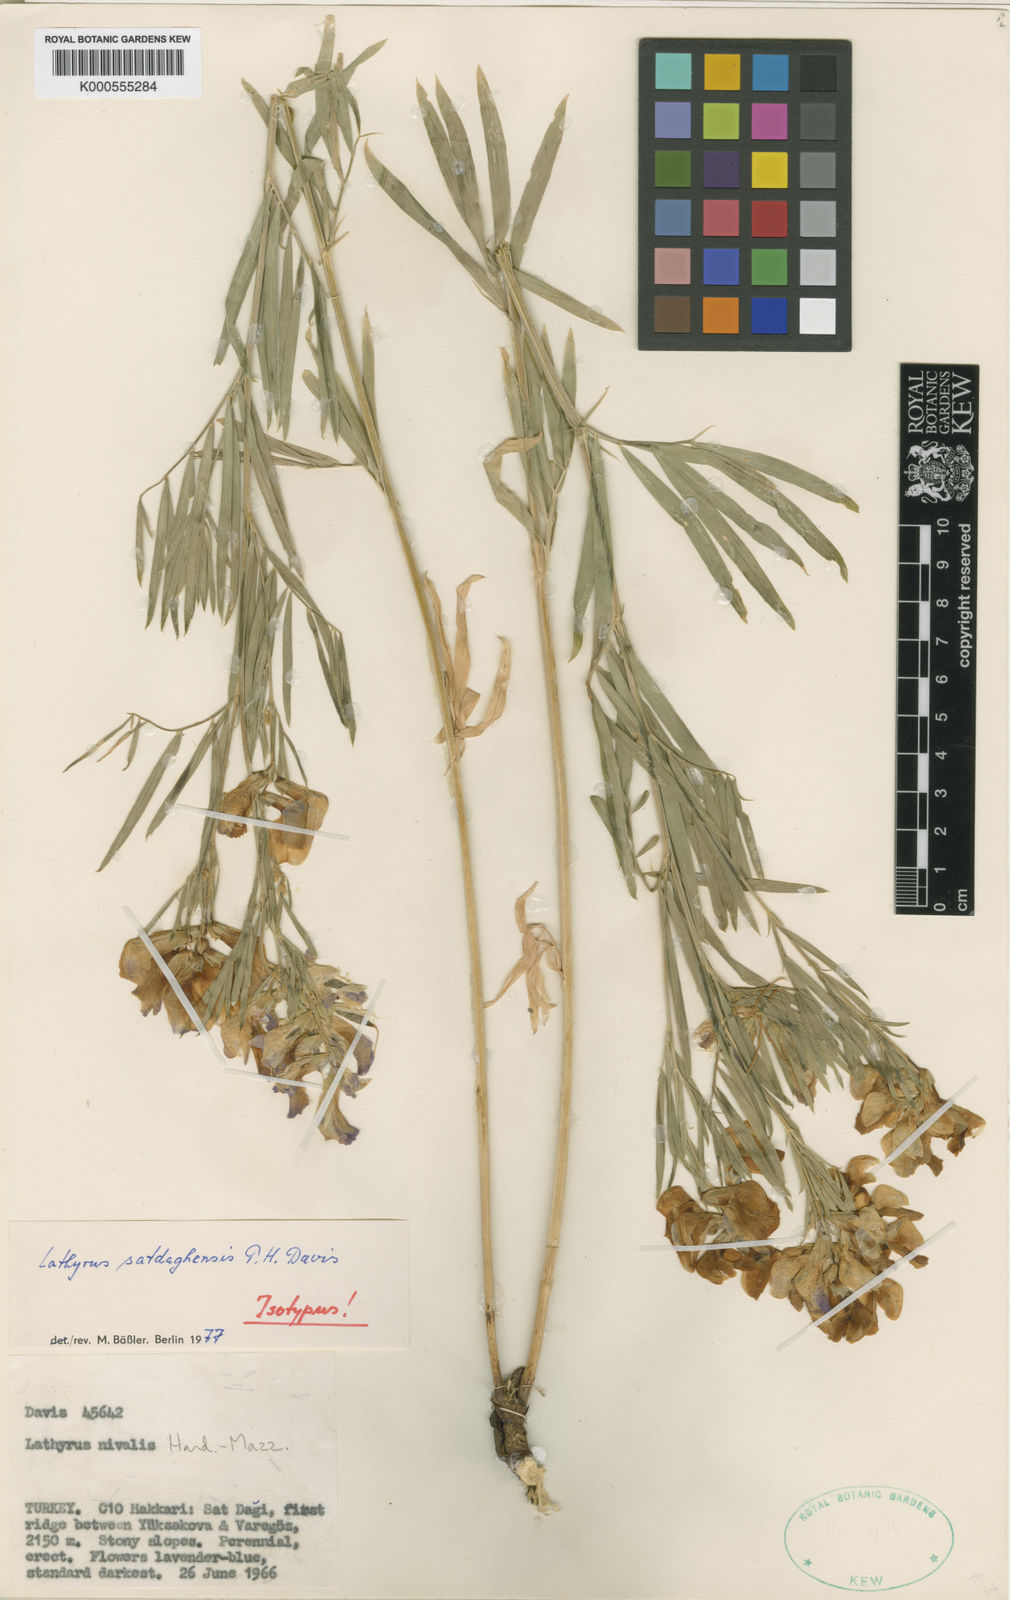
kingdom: Plantae
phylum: Tracheophyta
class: Magnoliopsida
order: Fabales
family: Fabaceae
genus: Lathyrus
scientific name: Lathyrus satdaghensis
